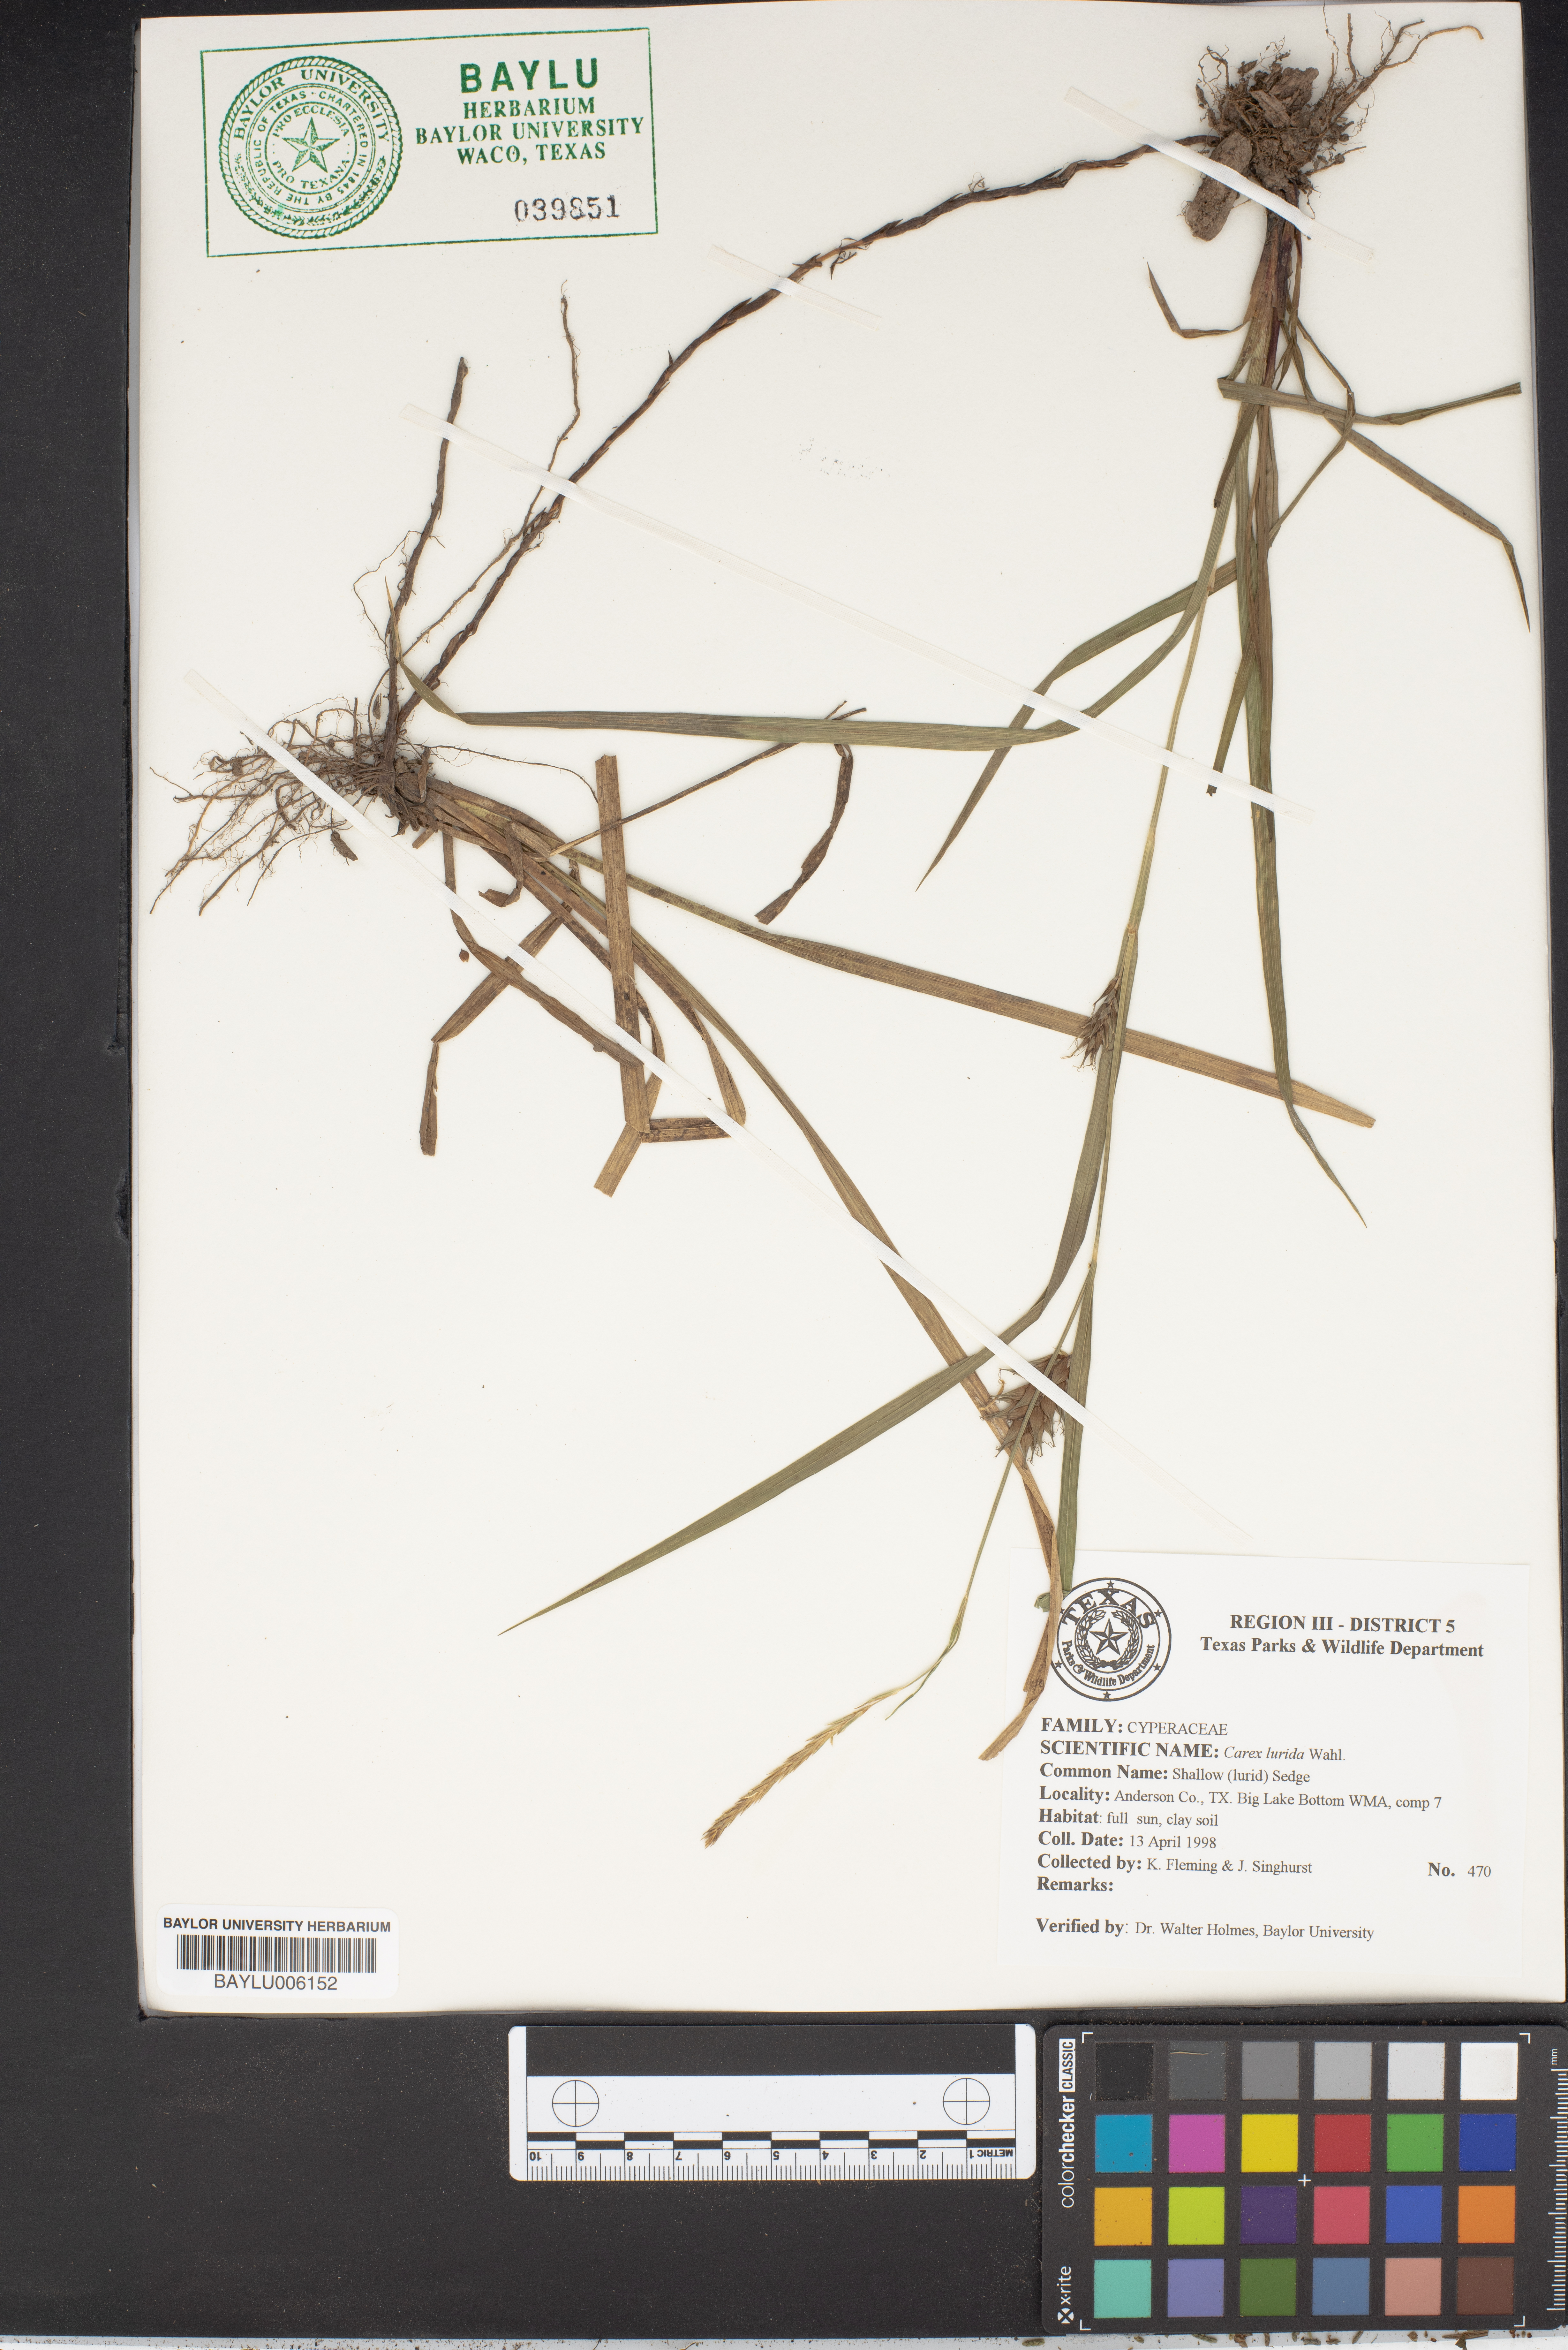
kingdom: Plantae
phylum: Tracheophyta
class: Liliopsida
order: Poales
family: Cyperaceae
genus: Carex
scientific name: Carex lurida
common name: Sallow sedge
